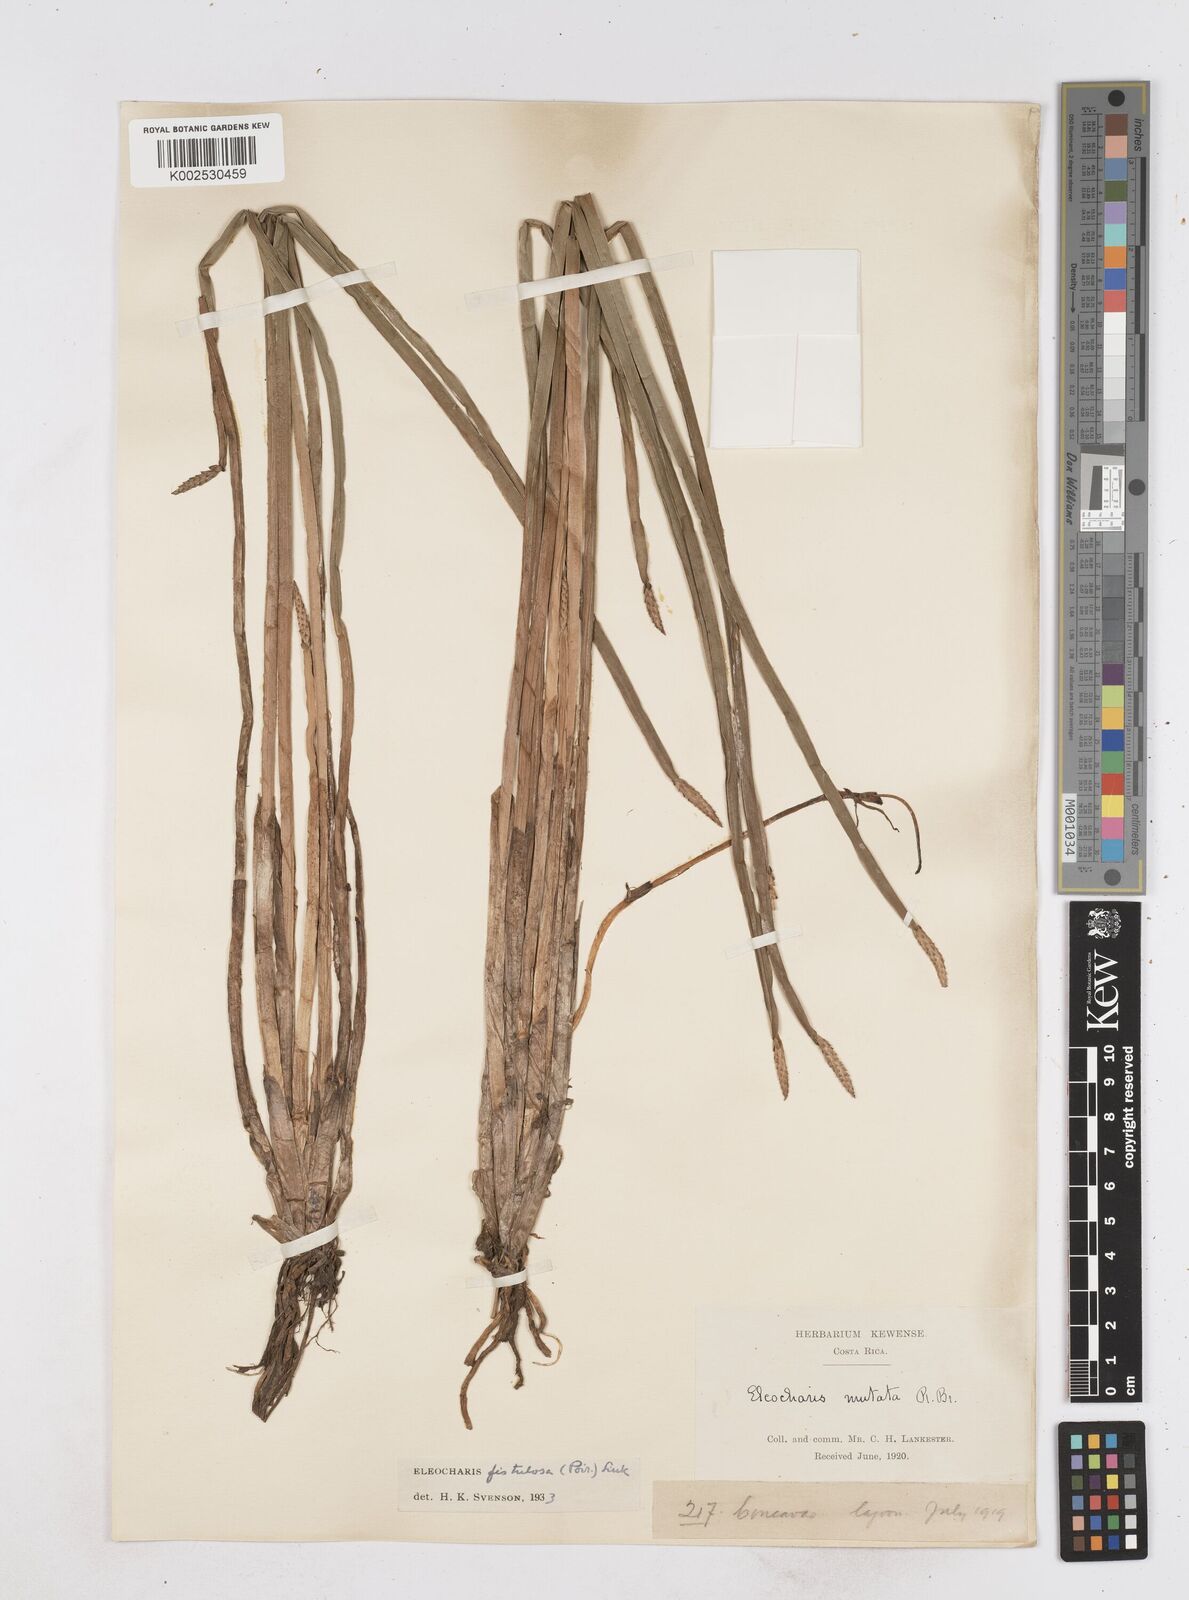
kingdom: Plantae
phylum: Tracheophyta
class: Liliopsida
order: Poales
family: Cyperaceae
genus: Eleocharis
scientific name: Eleocharis acutangula
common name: Acute spikerush
